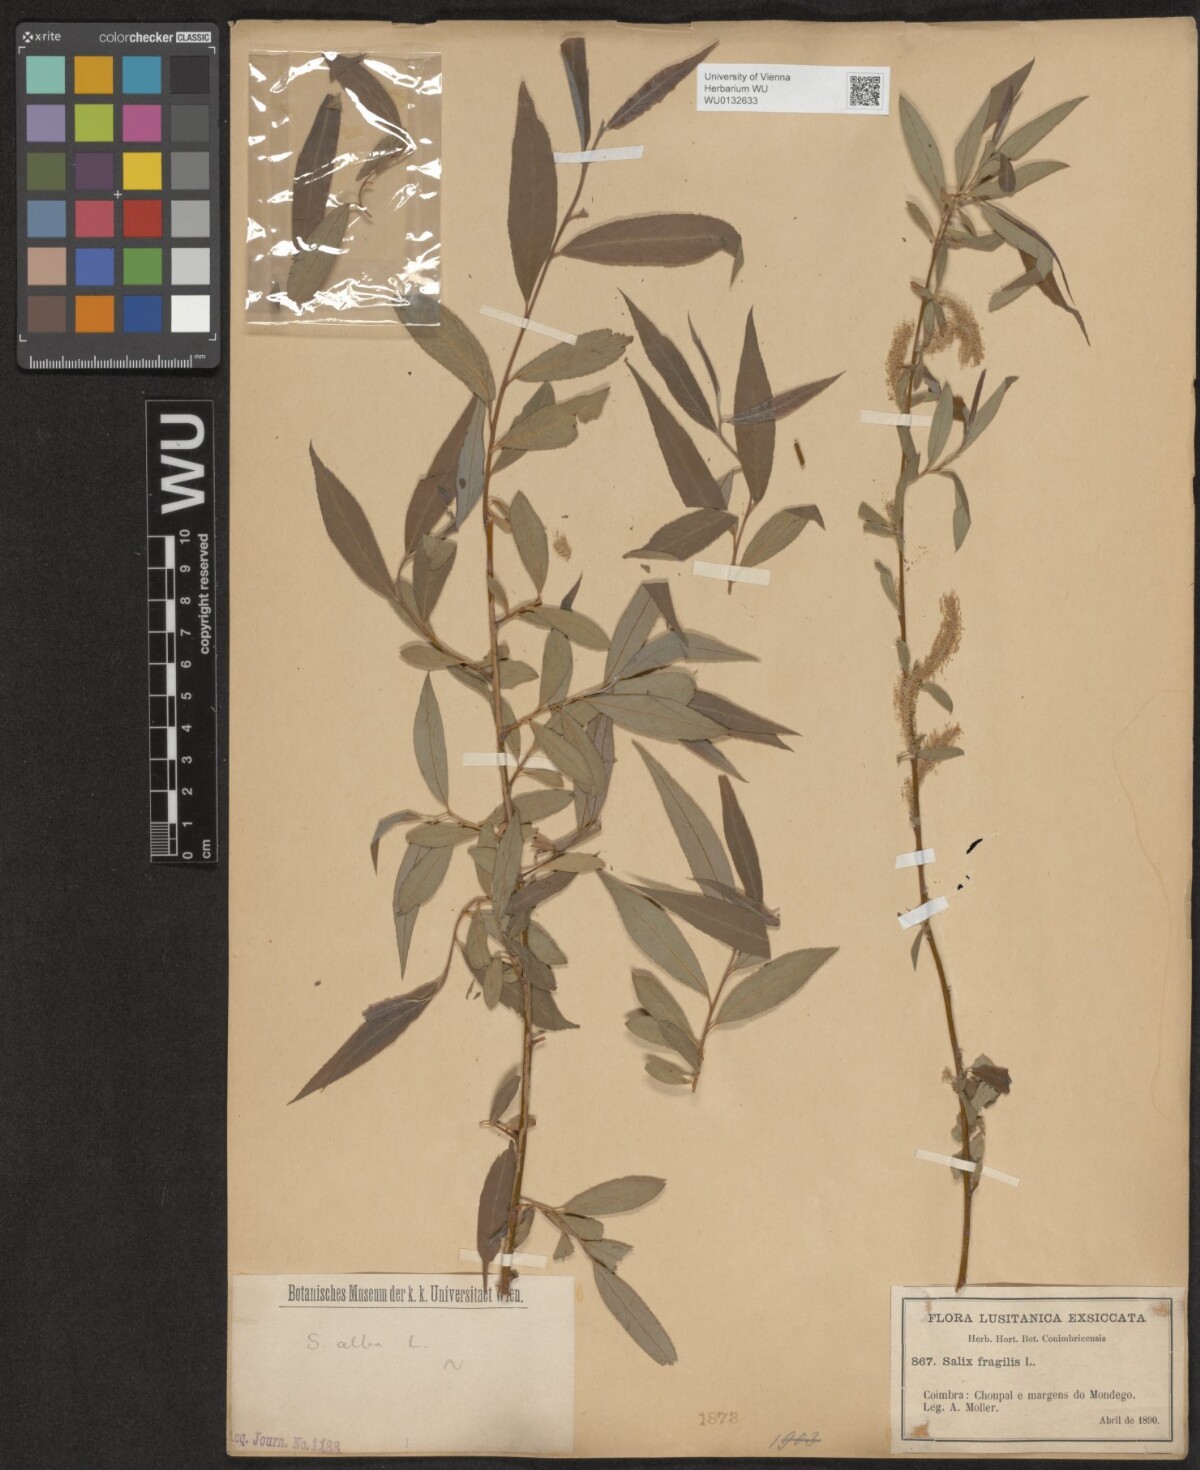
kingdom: Plantae
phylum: Tracheophyta
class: Magnoliopsida
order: Malpighiales
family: Salicaceae
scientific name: Salicaceae
